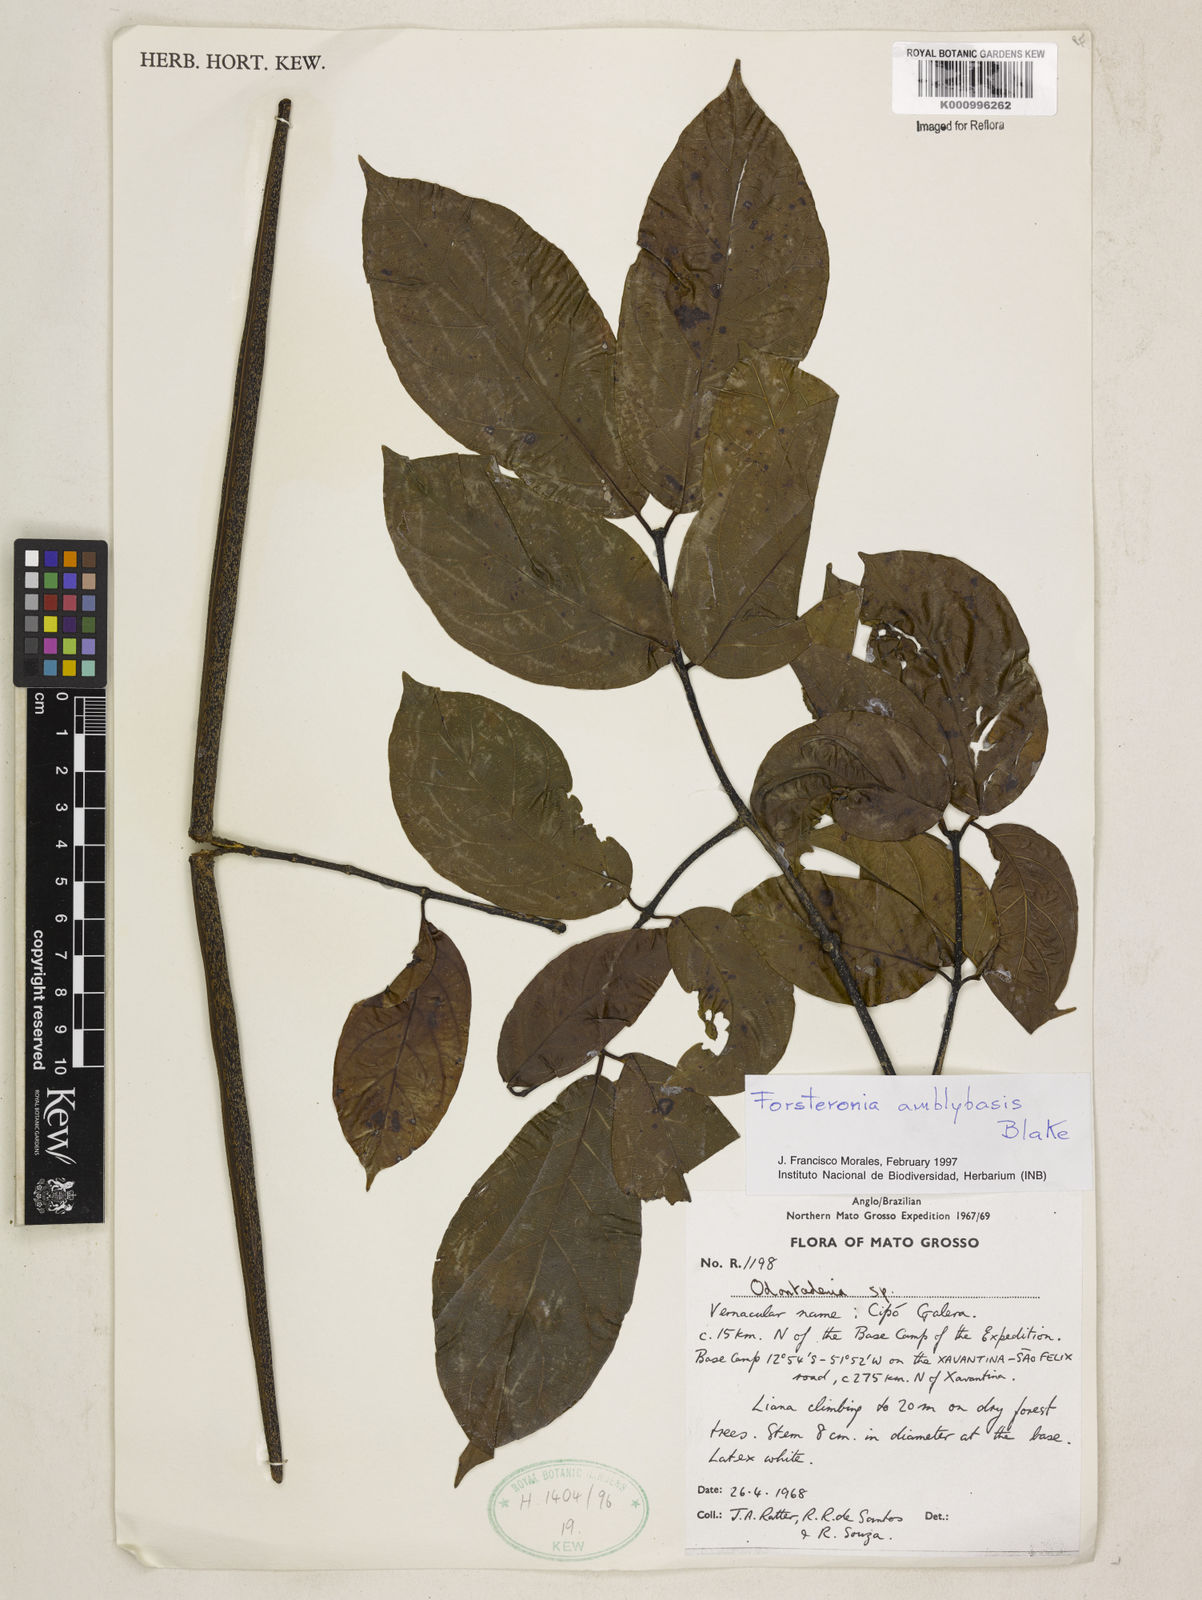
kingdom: Plantae
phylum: Tracheophyta
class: Magnoliopsida
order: Gentianales
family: Apocynaceae
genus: Forsteronia
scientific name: Forsteronia amblybasis
